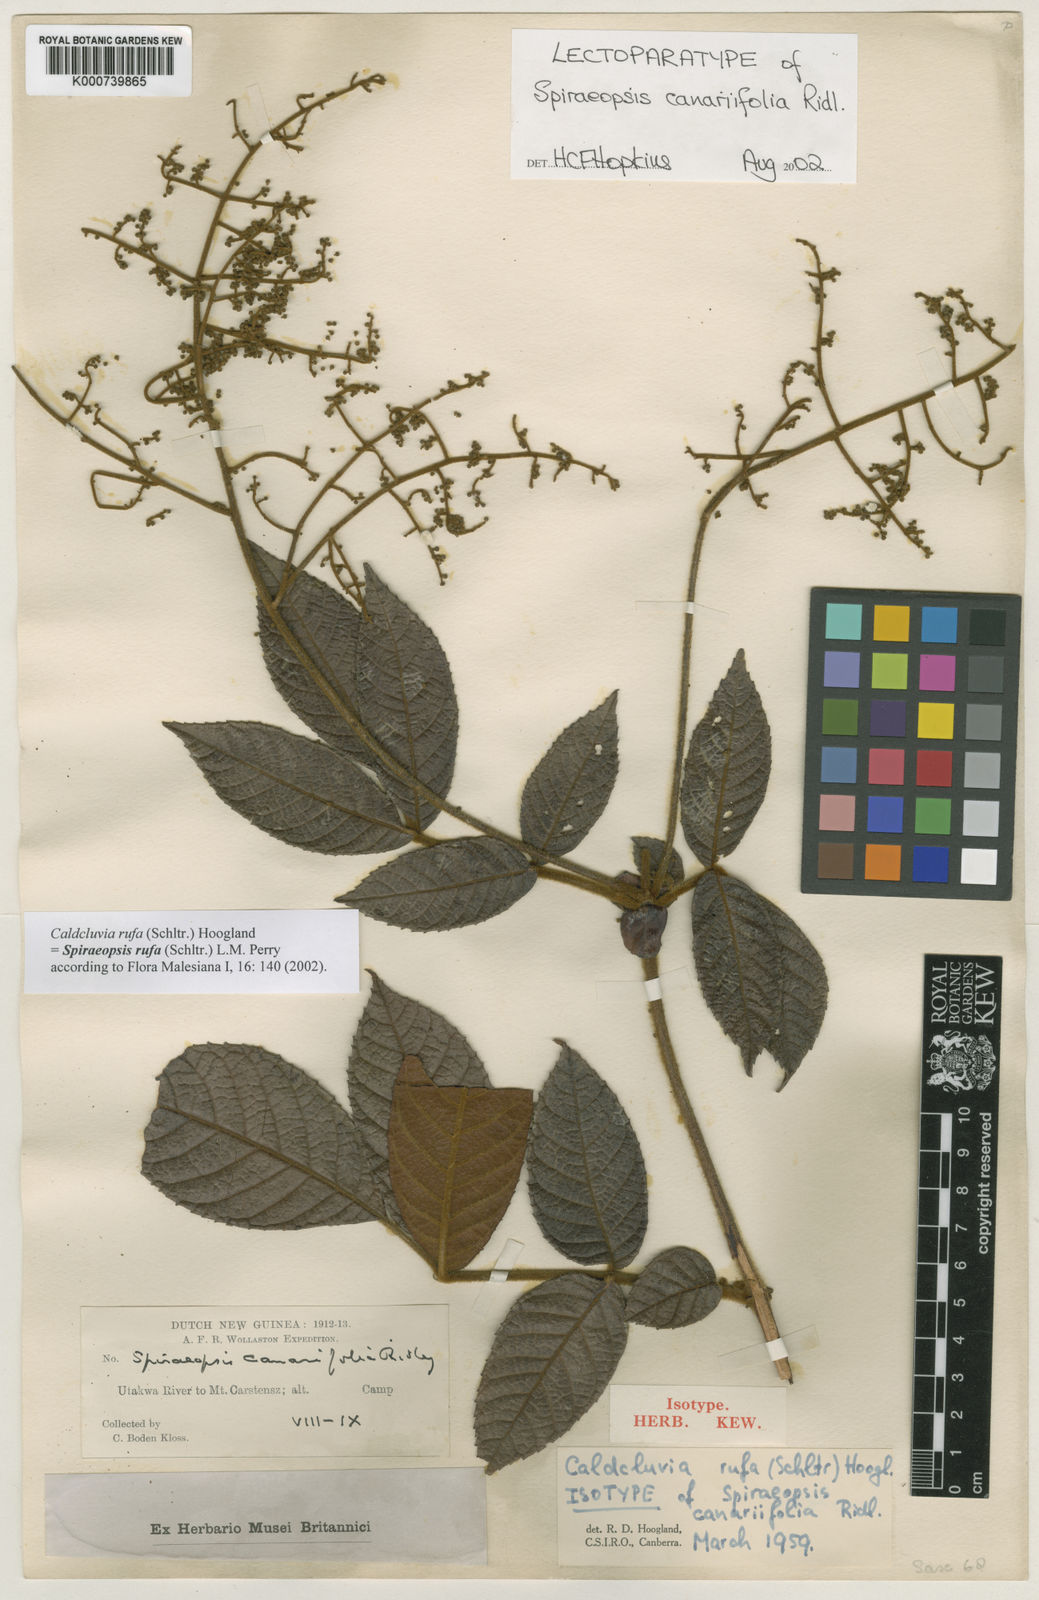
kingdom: Plantae
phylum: Tracheophyta
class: Magnoliopsida
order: Oxalidales
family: Cunoniaceae
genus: Ackama
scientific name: Ackama rufa
